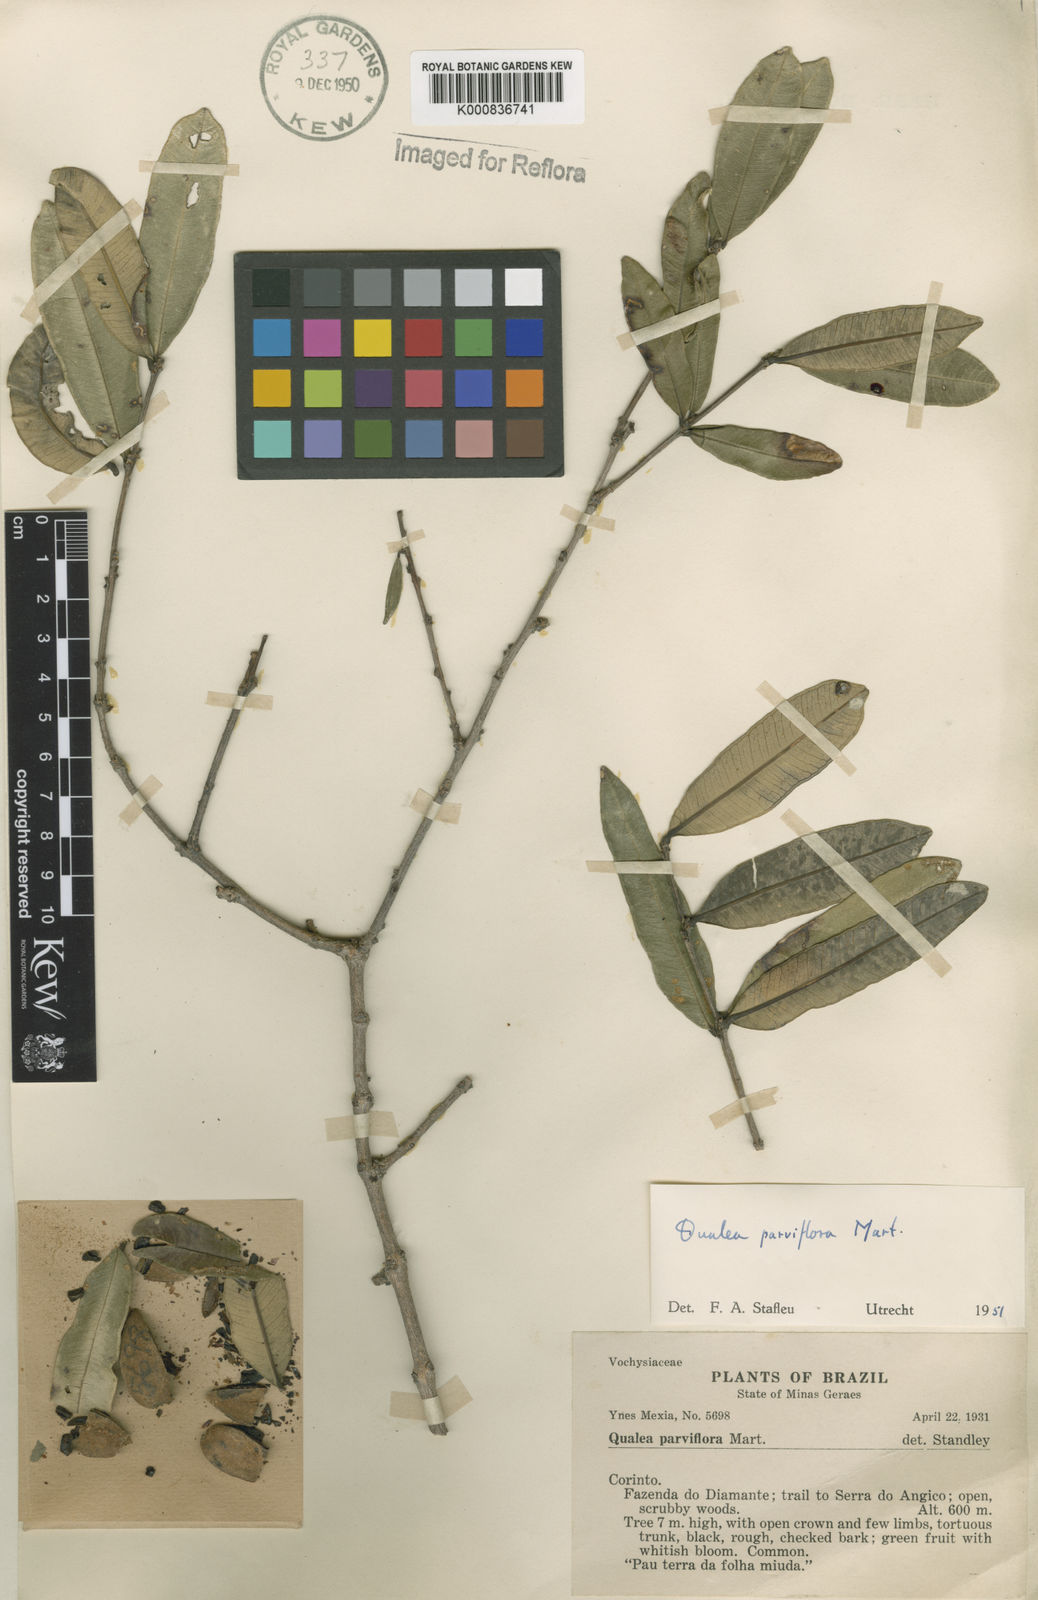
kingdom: Plantae
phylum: Tracheophyta
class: Magnoliopsida
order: Myrtales
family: Vochysiaceae
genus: Qualea
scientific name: Qualea parviflora
